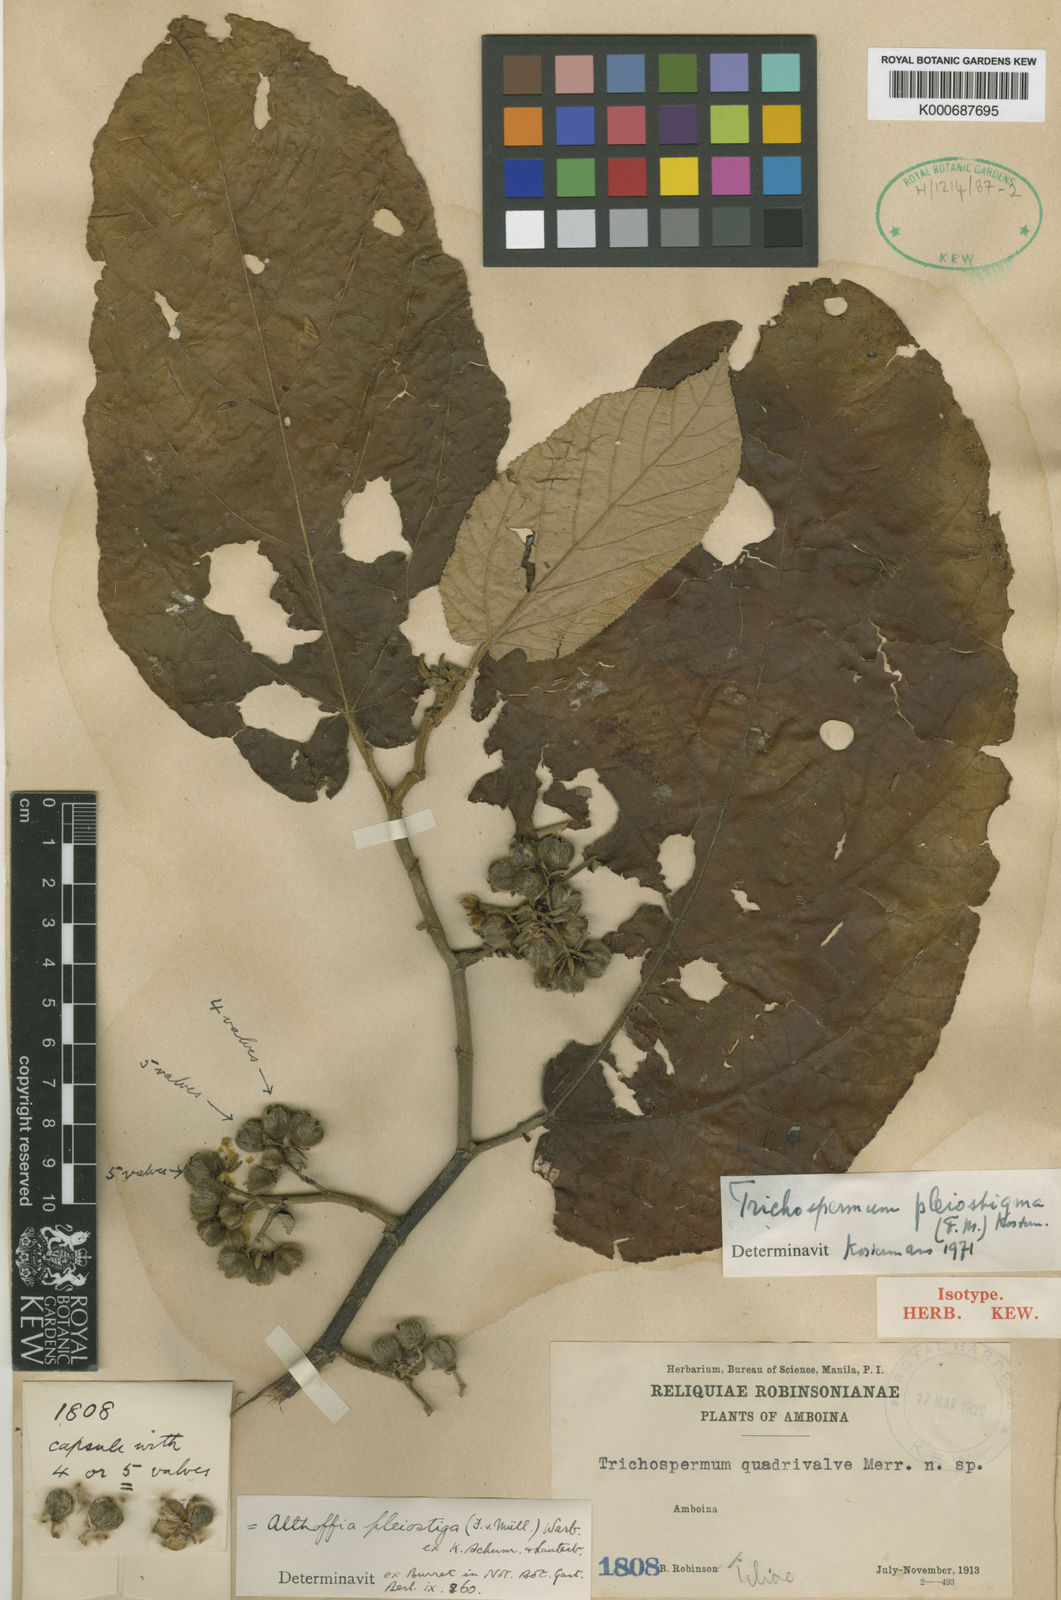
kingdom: Plantae
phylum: Tracheophyta
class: Magnoliopsida
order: Malvales
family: Malvaceae
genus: Trichospermum
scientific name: Trichospermum pleiostigma
